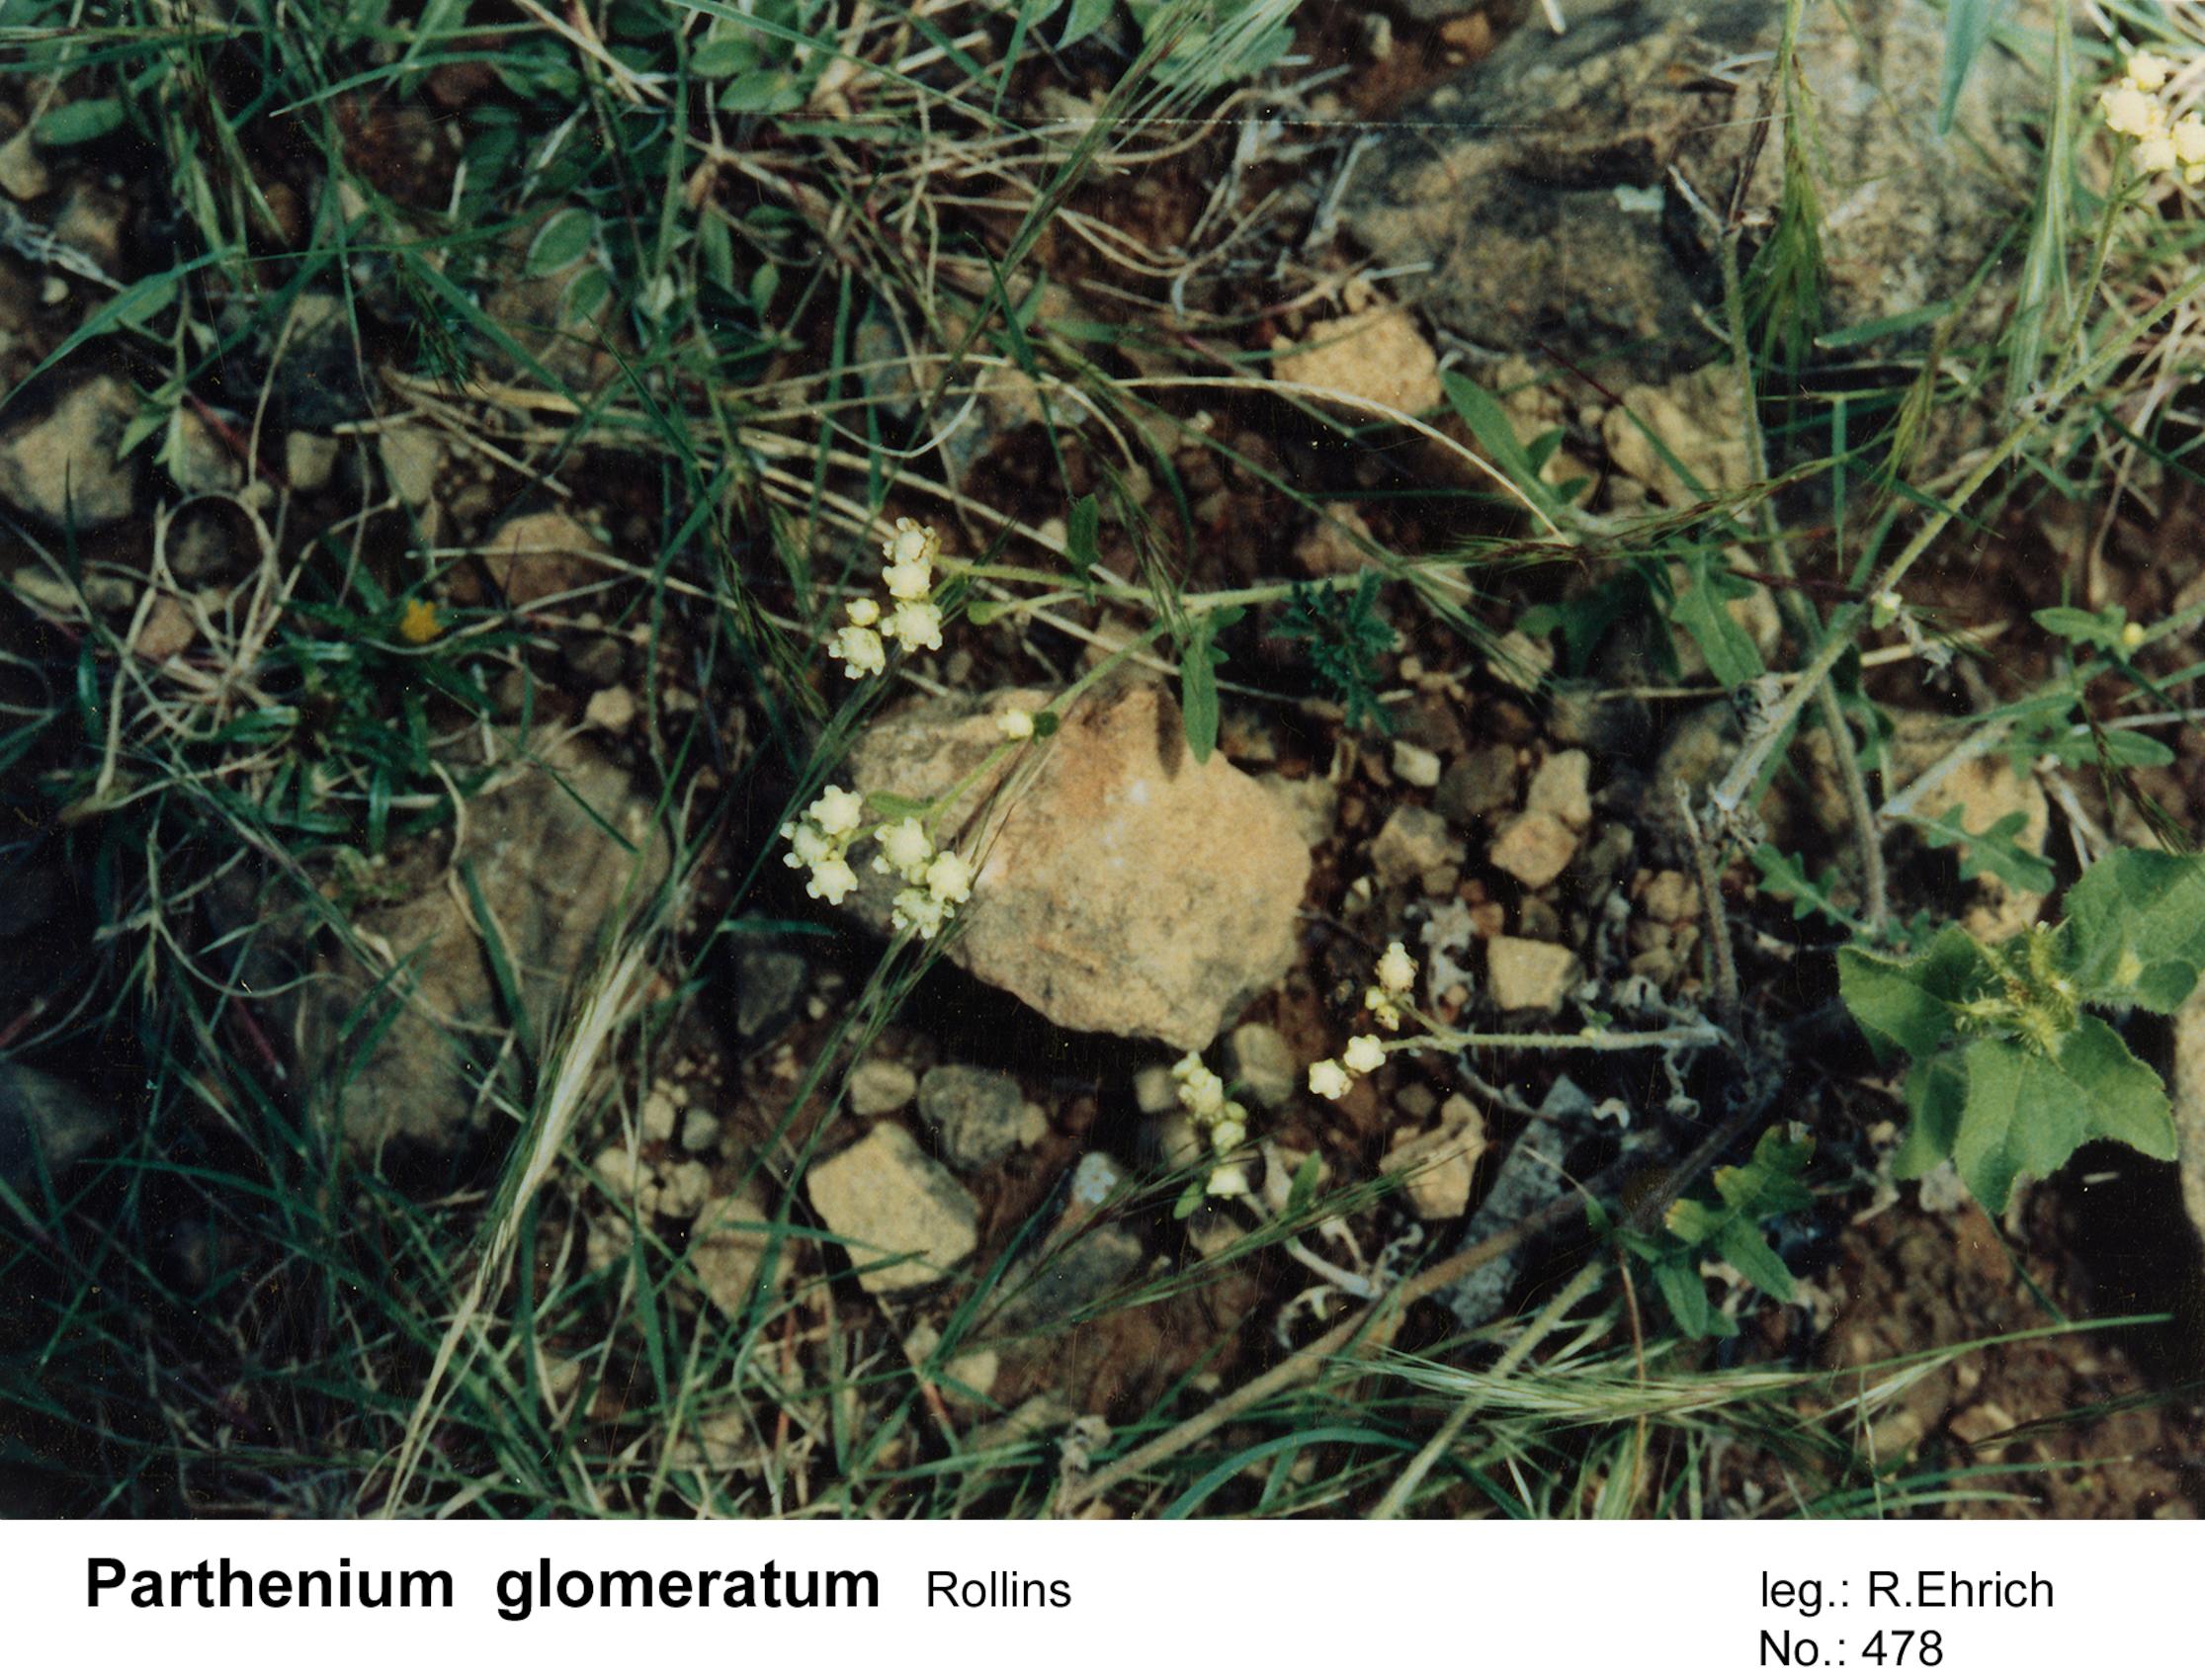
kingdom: Plantae
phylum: Tracheophyta
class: Magnoliopsida
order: Asterales
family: Asteraceae
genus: Parthenium
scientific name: Parthenium glomeratum
